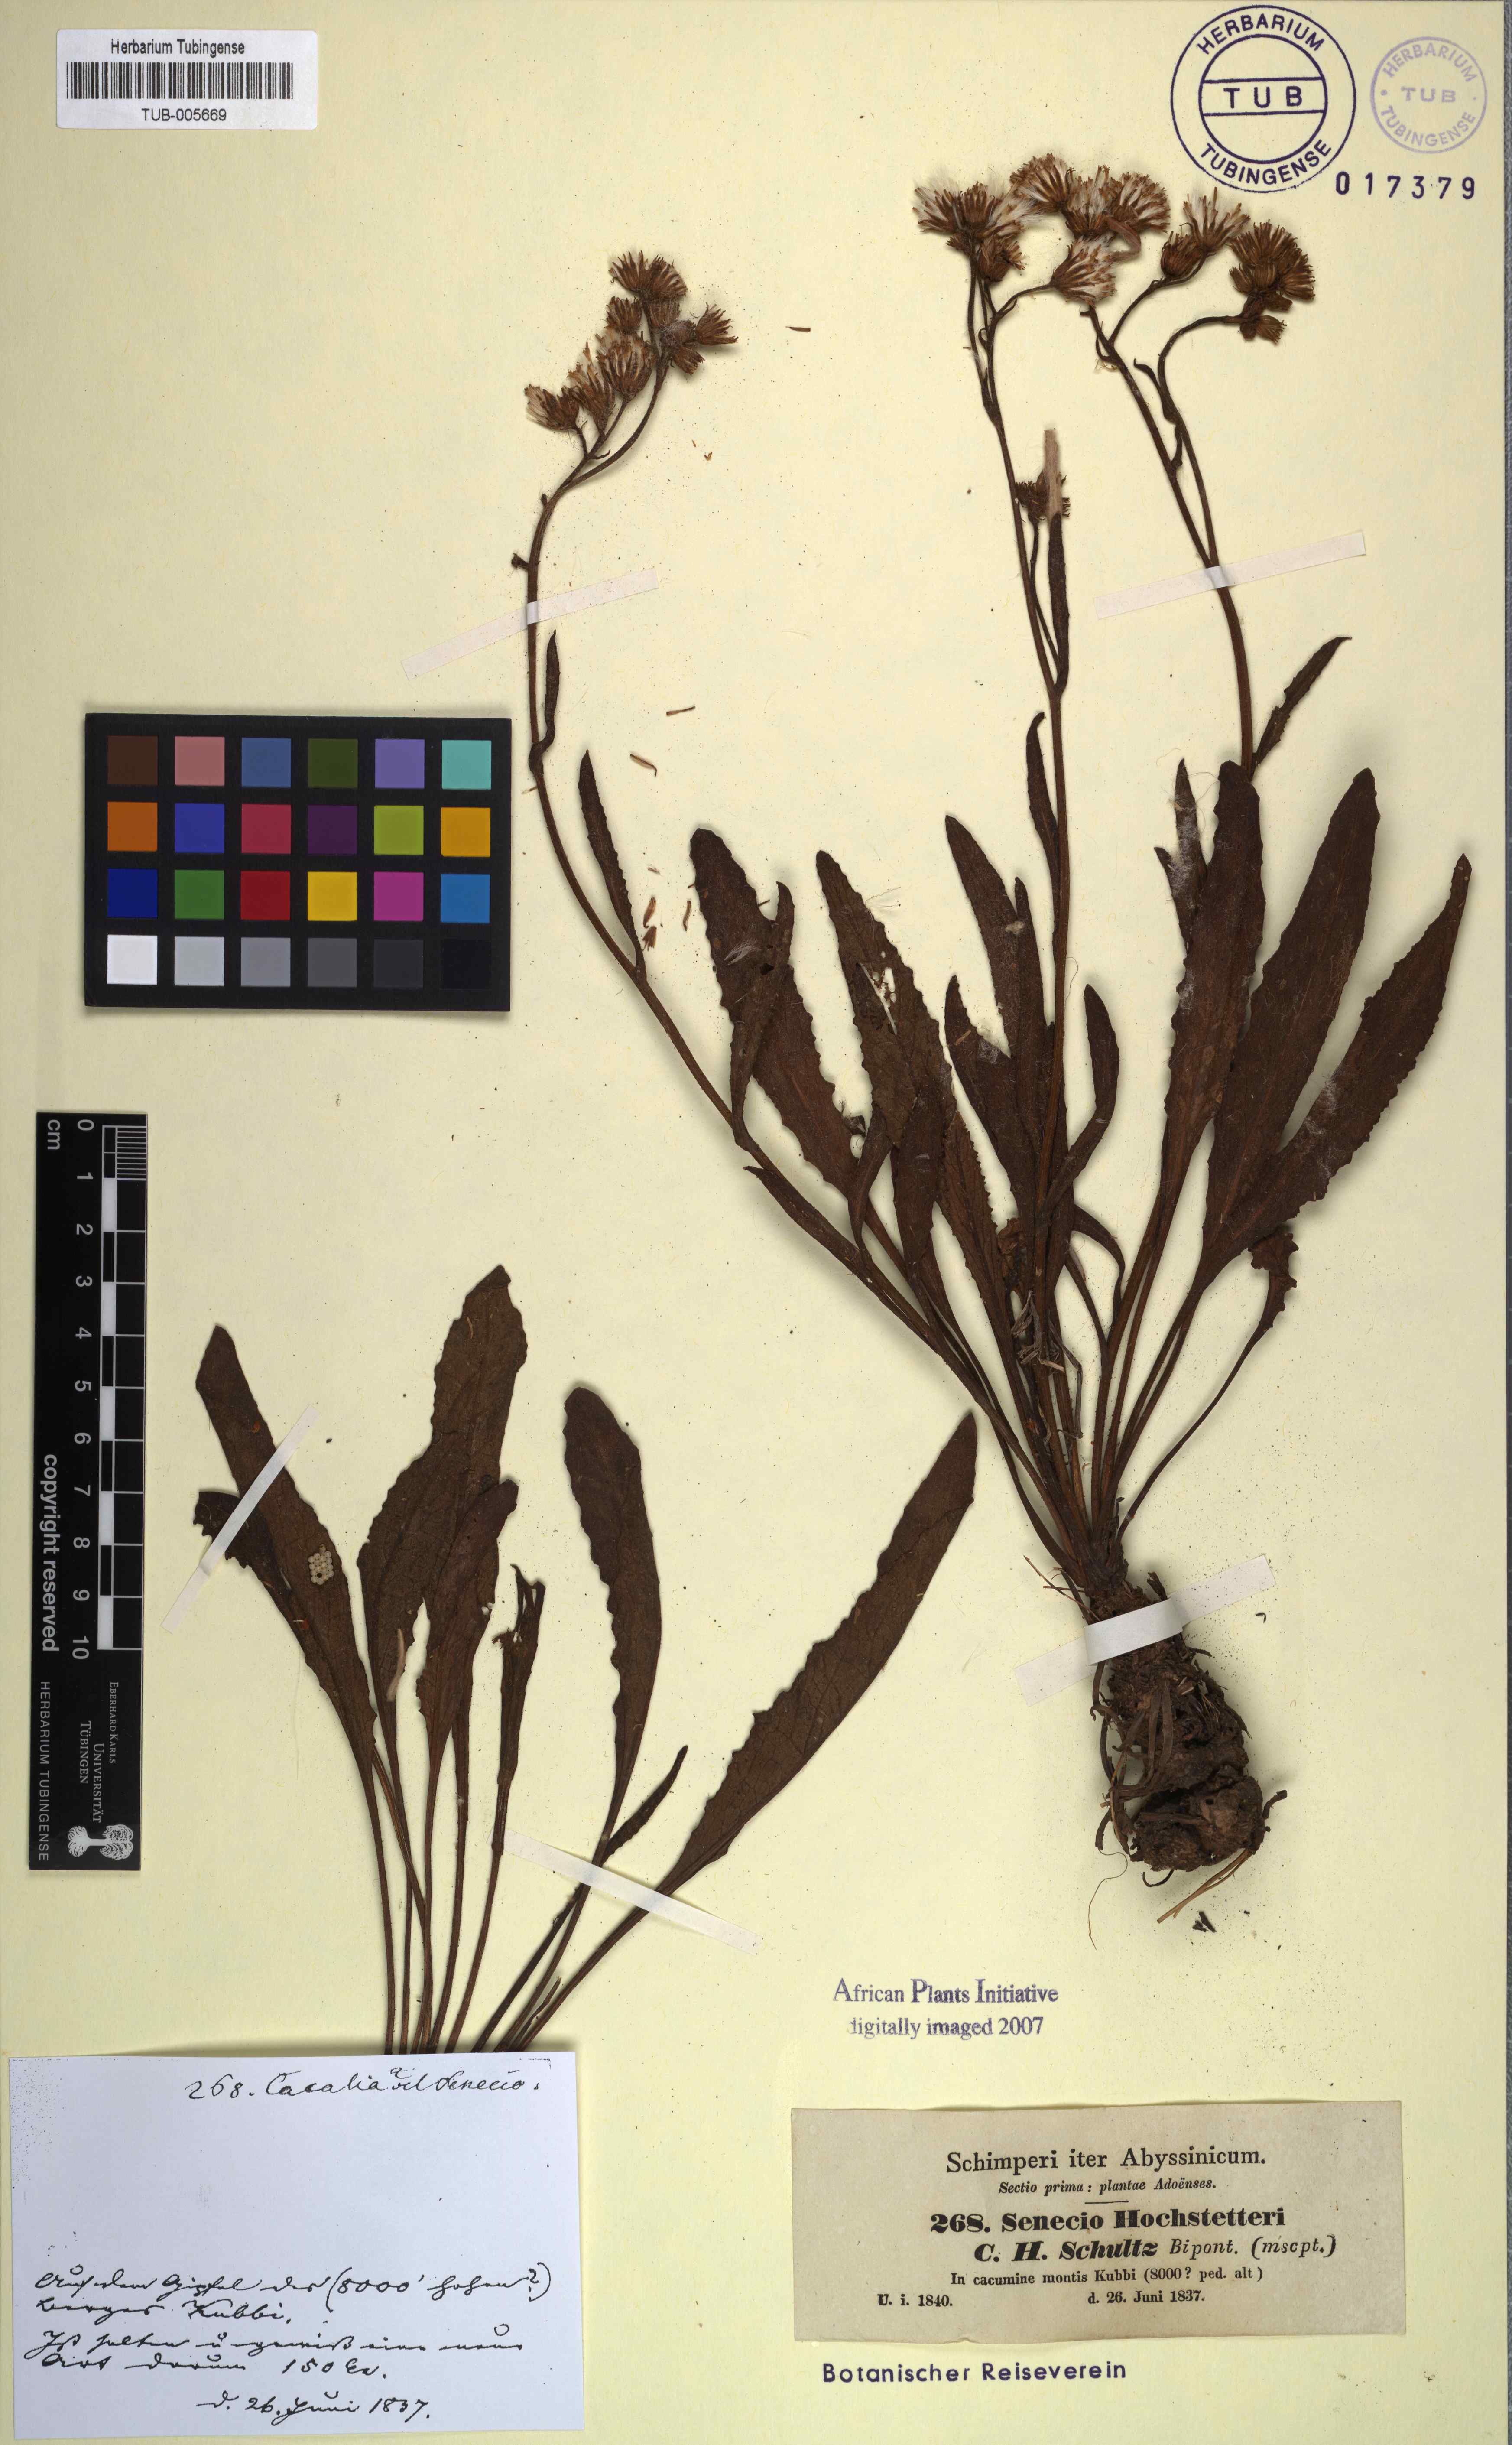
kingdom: Plantae
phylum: Tracheophyta
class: Magnoliopsida
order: Asterales
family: Asteraceae
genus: Senecio
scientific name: Senecio hochstetteri
